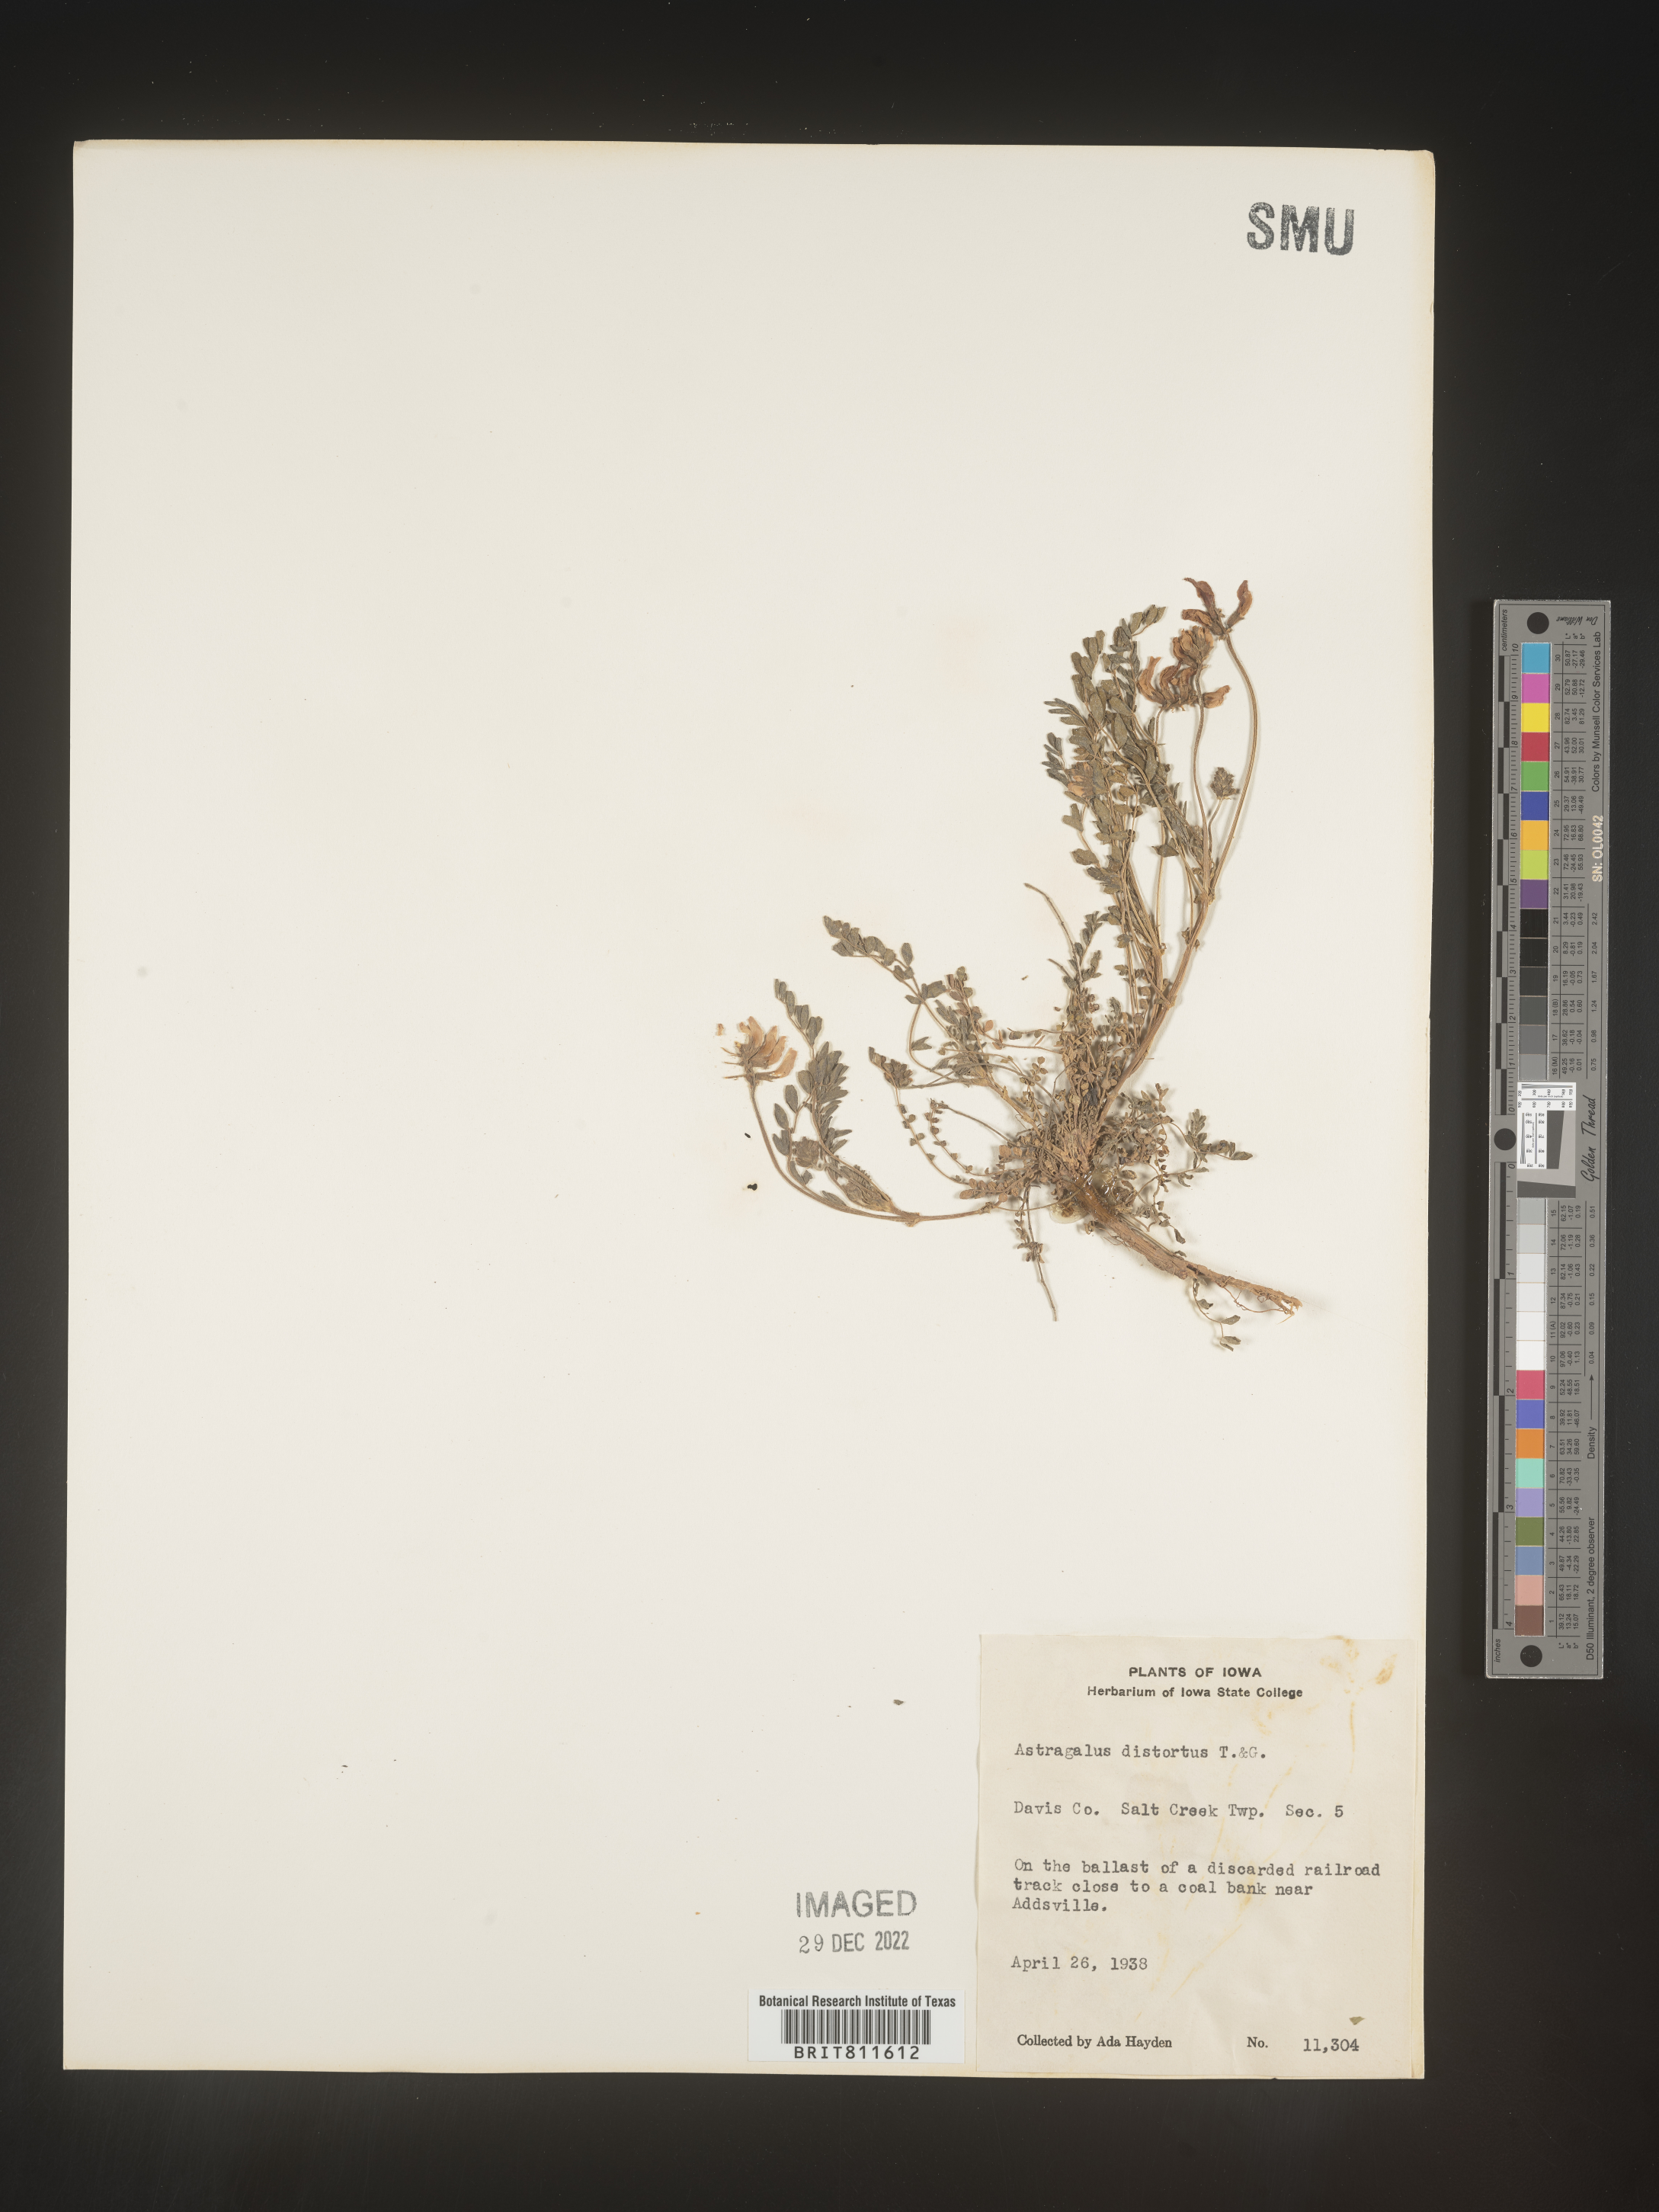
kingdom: Plantae
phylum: Tracheophyta
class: Magnoliopsida
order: Fabales
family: Fabaceae
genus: Astragalus
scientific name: Astragalus distortus
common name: Ozark milk-vetch
